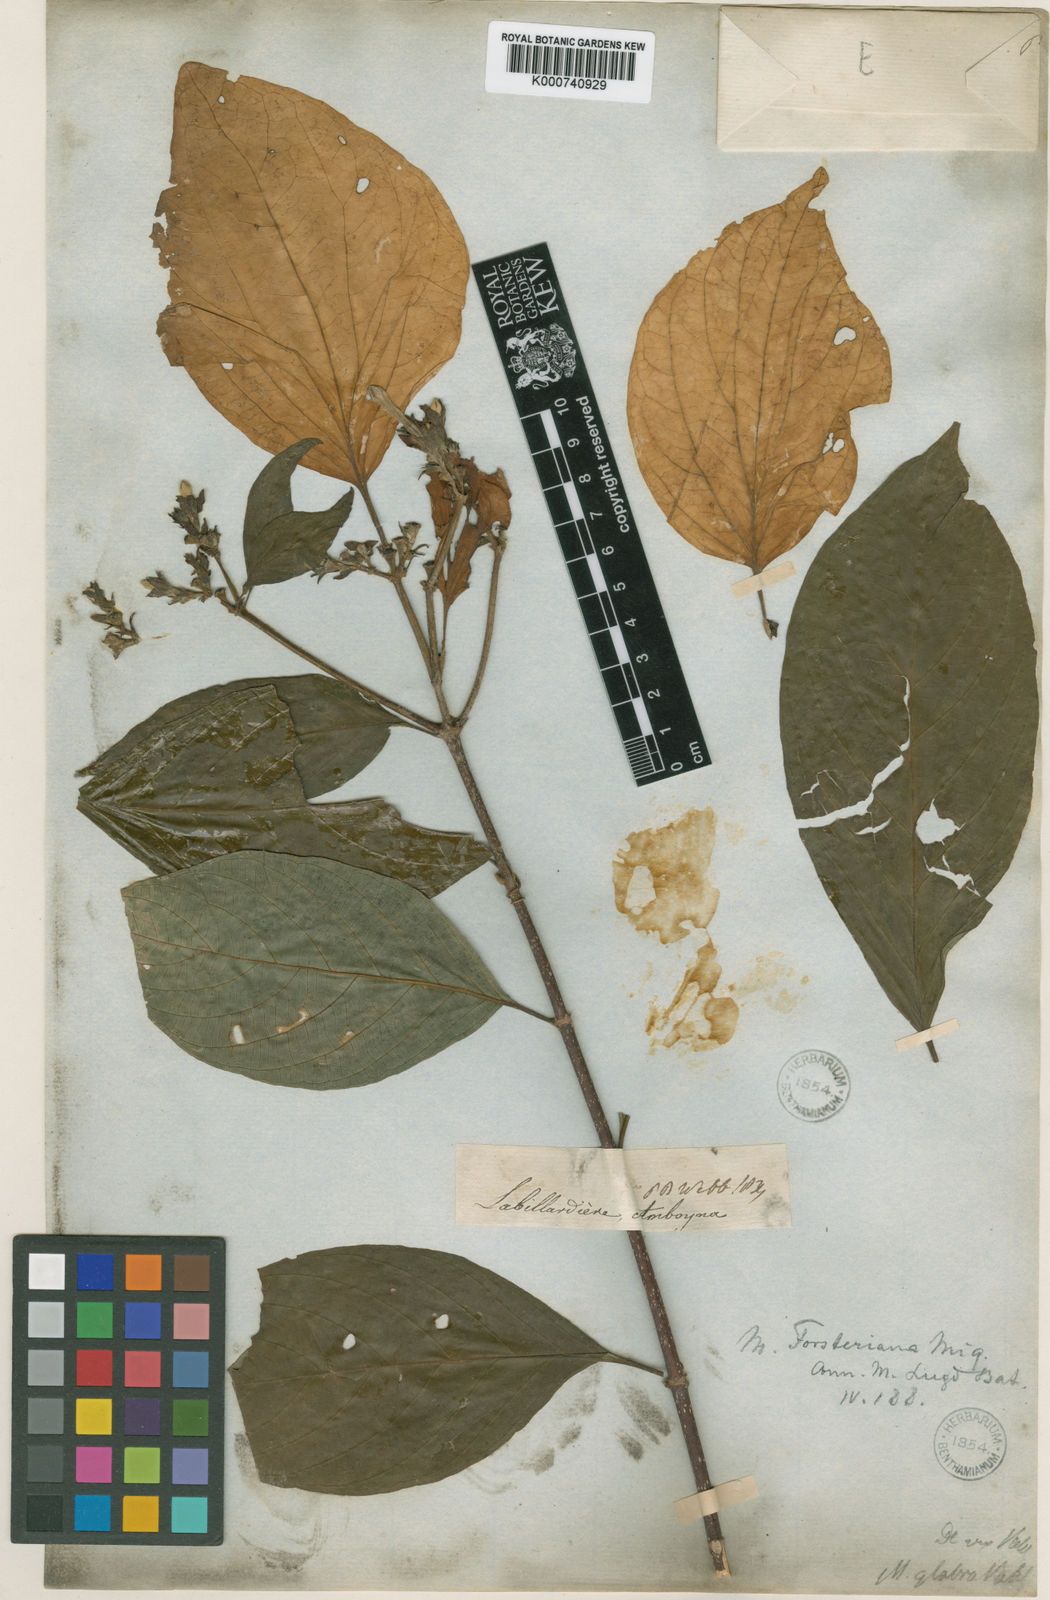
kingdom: Plantae
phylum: Tracheophyta
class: Magnoliopsida
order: Gentianales
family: Rubiaceae
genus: Mussaenda
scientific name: Mussaenda forsteniana
